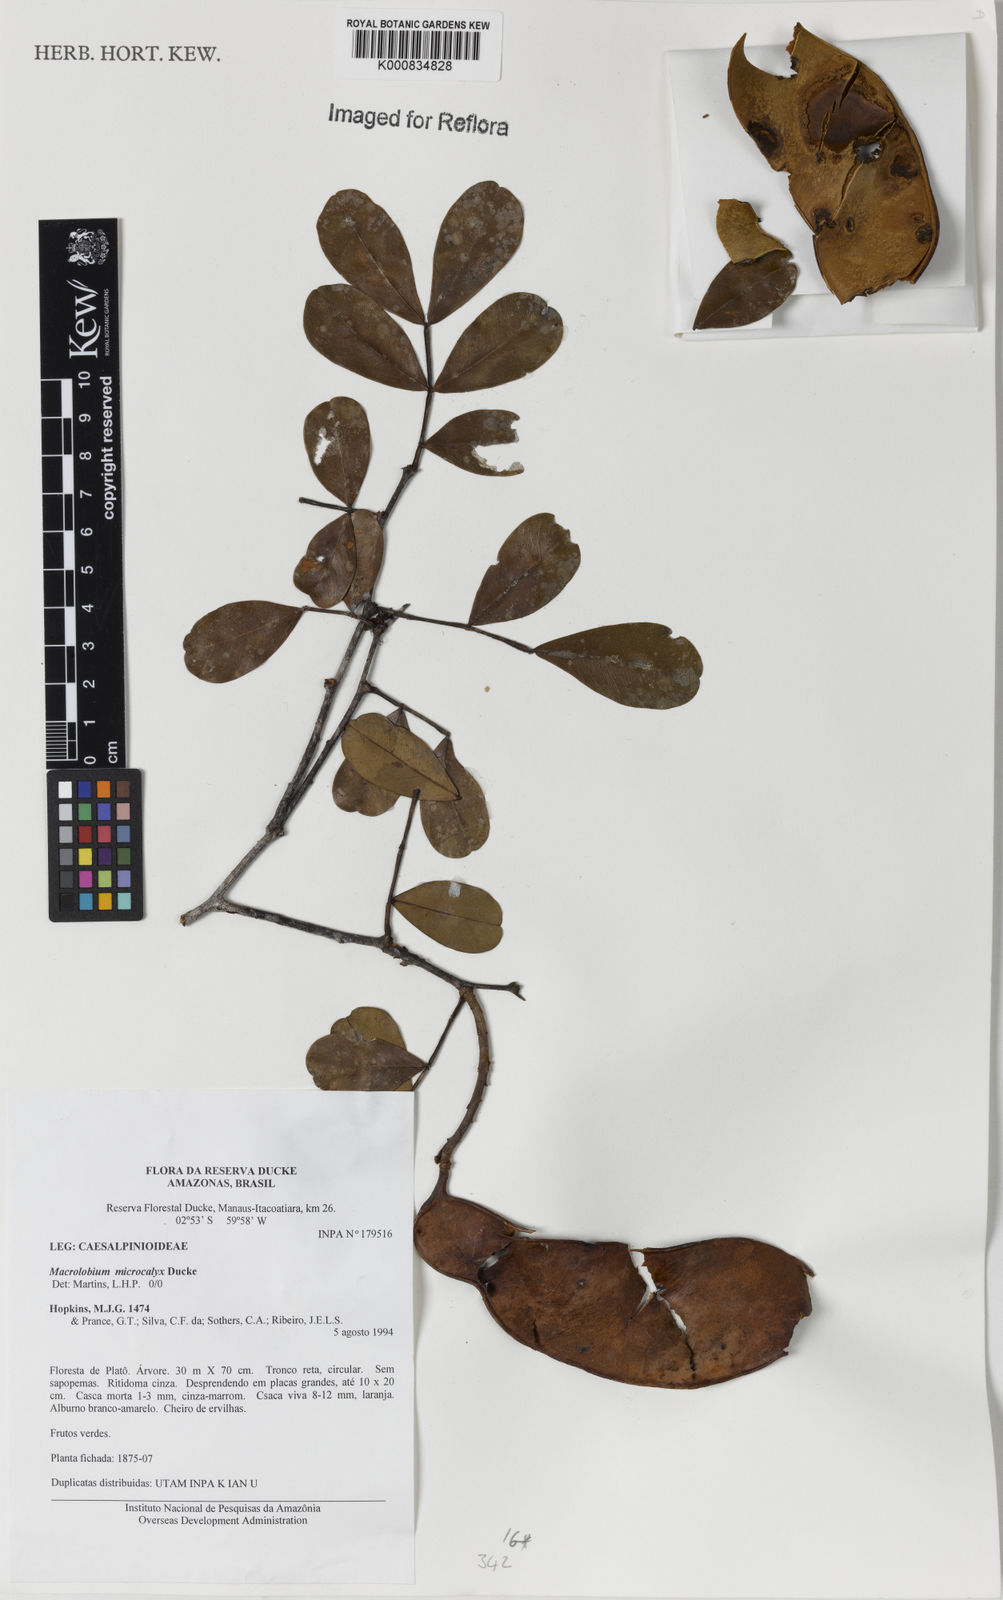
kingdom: Plantae
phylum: Tracheophyta
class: Magnoliopsida
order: Fabales
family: Fabaceae
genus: Macrolobium
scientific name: Macrolobium microcalyx
